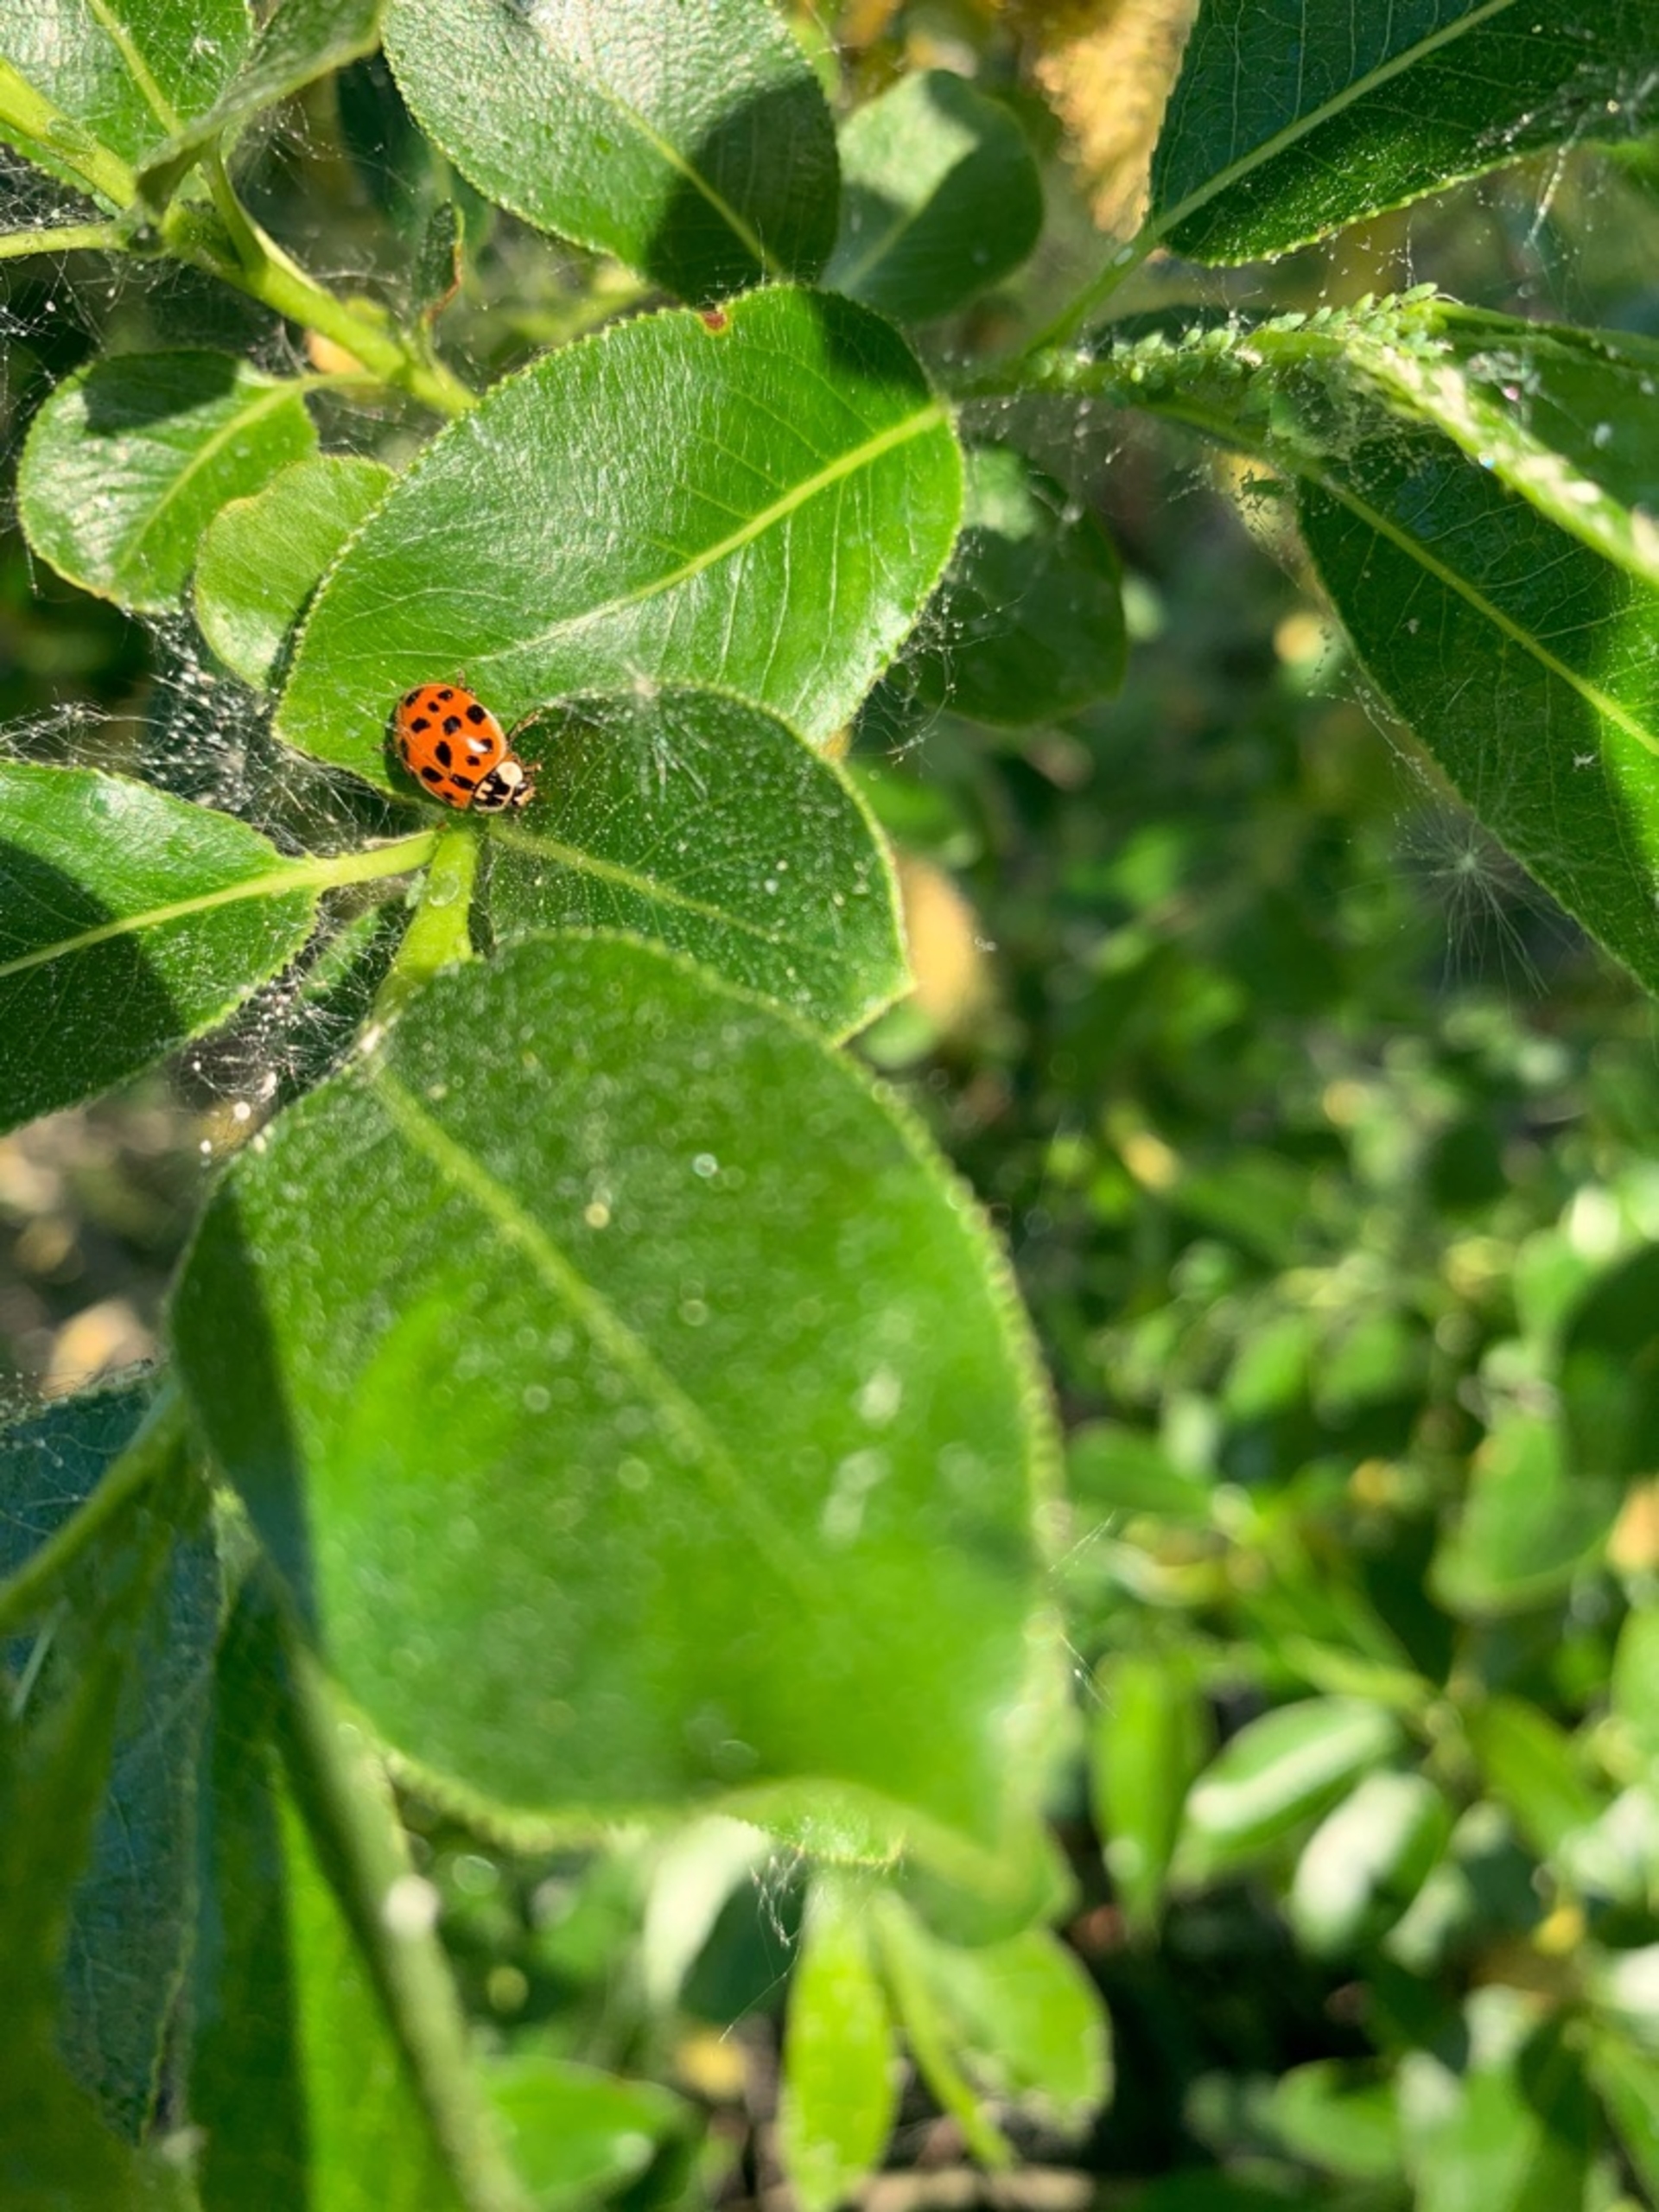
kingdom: Animalia
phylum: Arthropoda
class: Insecta
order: Coleoptera
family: Coccinellidae
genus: Harmonia
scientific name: Harmonia axyridis
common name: Harlekinmariehøne
